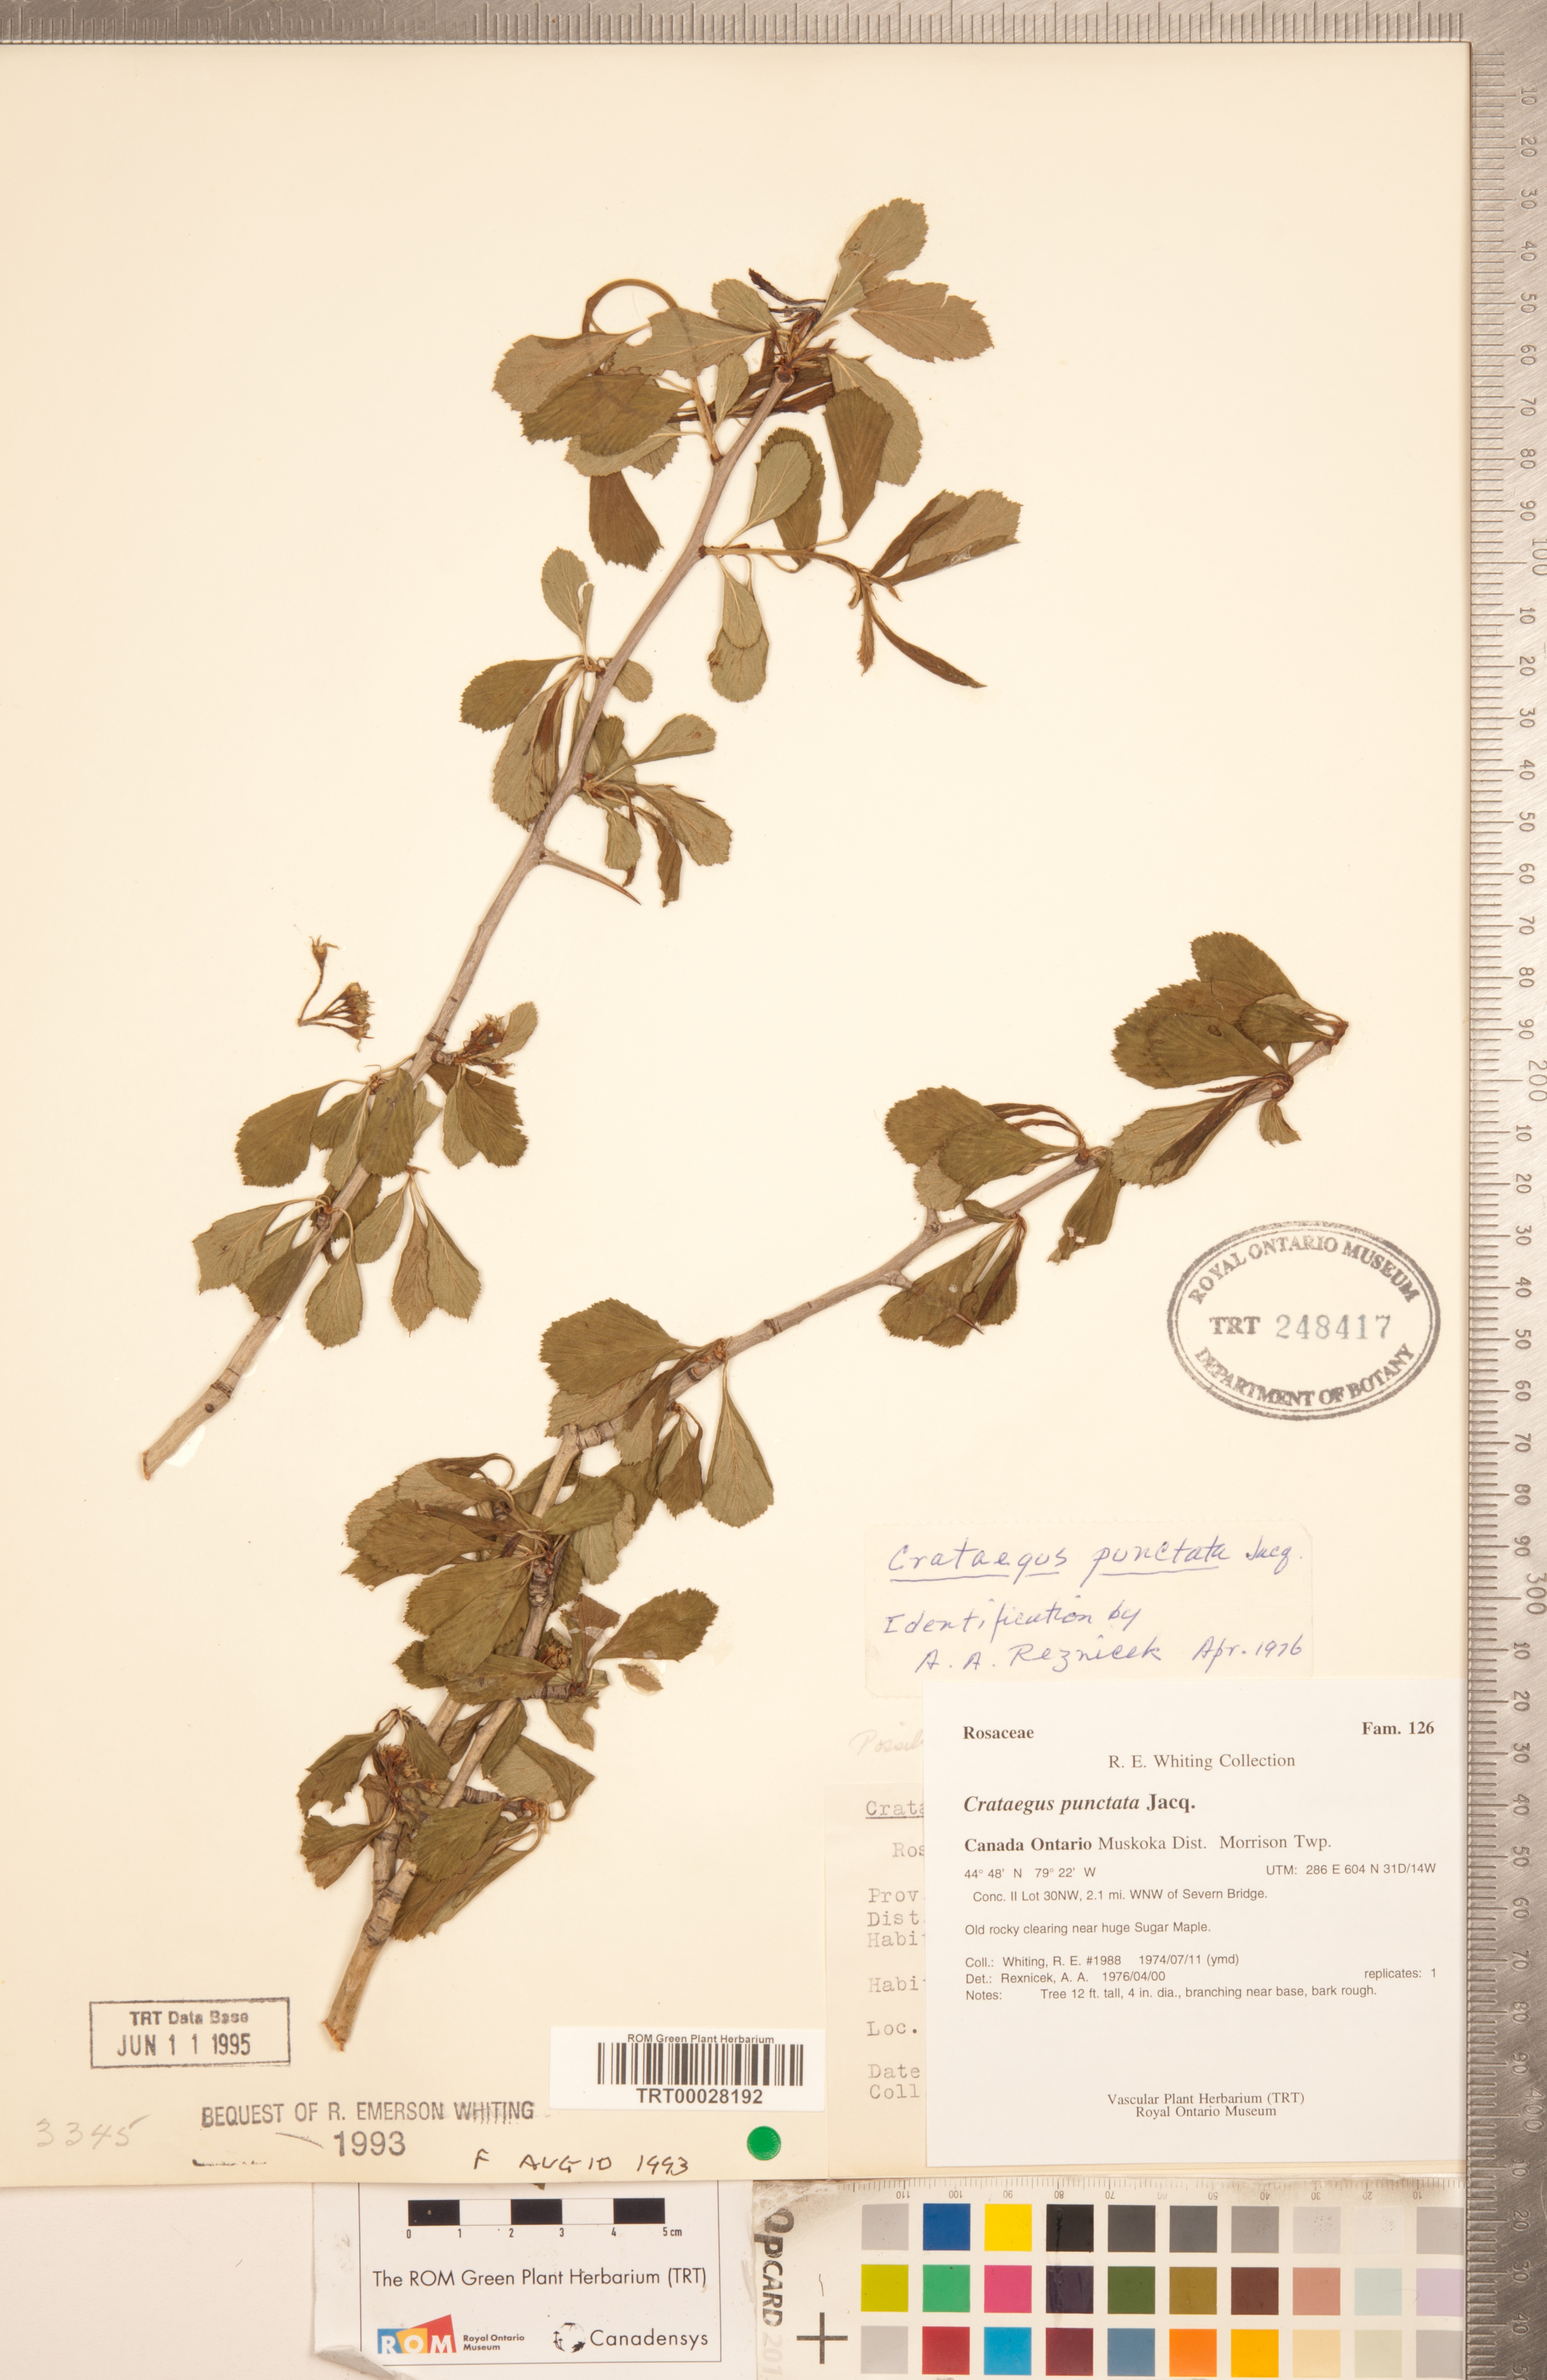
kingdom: Plantae
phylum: Tracheophyta
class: Magnoliopsida
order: Rosales
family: Rosaceae
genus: Crataegus
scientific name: Crataegus punctata
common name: Dotted hawthorn
